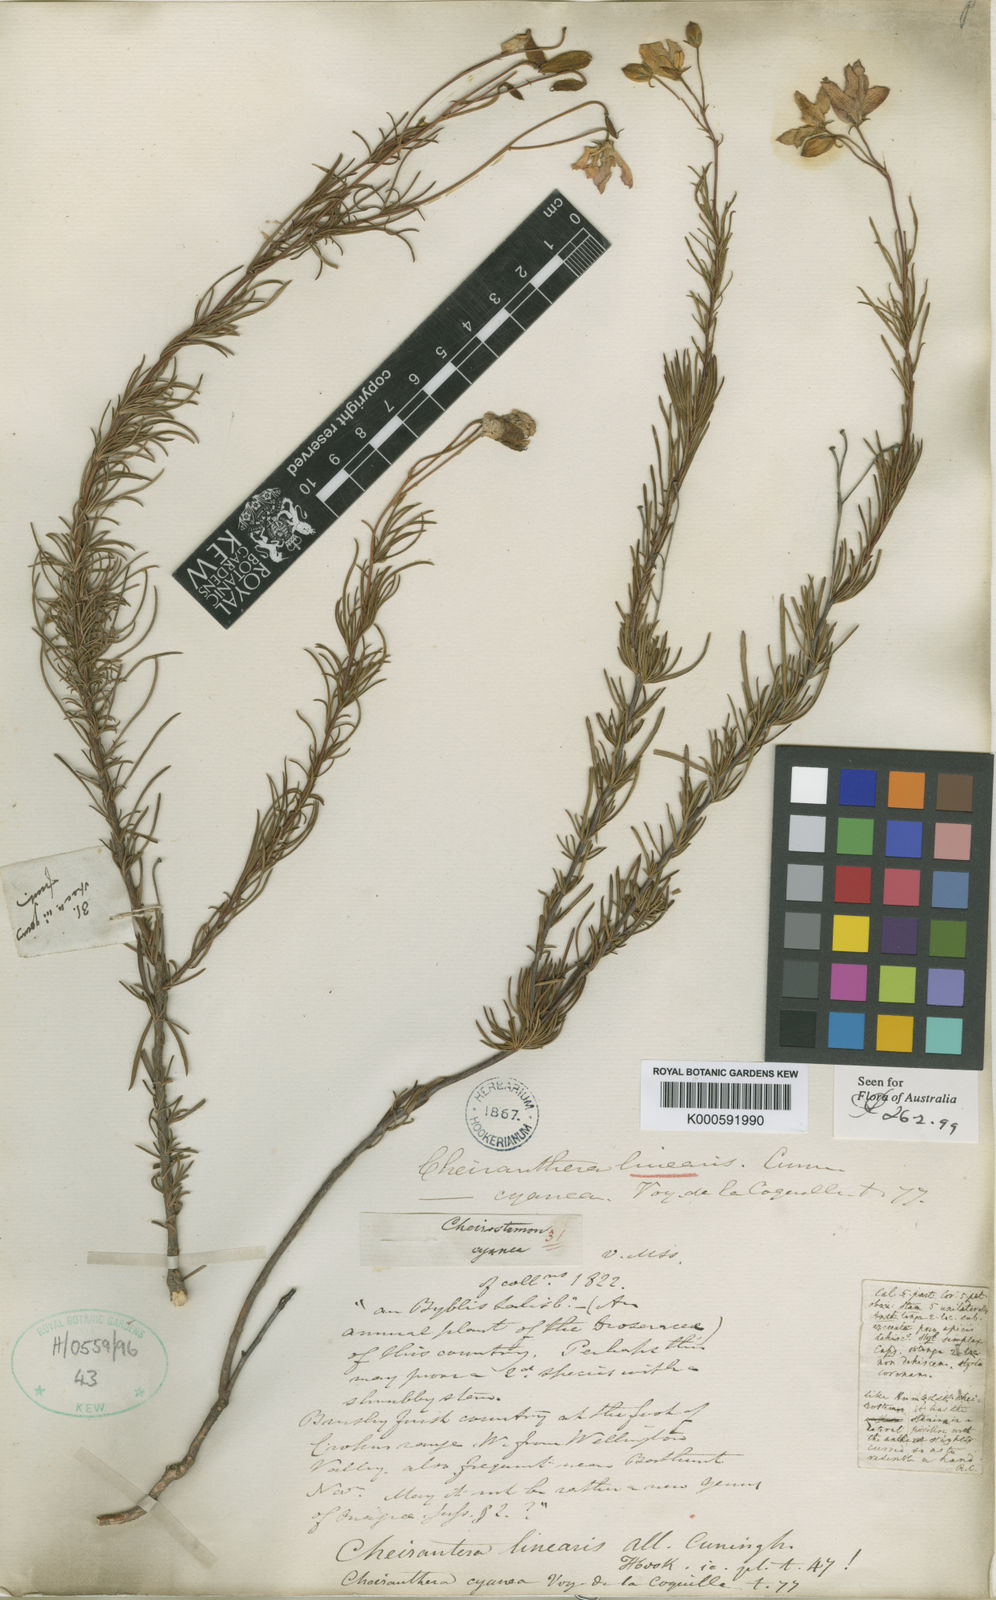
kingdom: Plantae
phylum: Tracheophyta
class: Magnoliopsida
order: Apiales
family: Pittosporaceae
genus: Cheiranthera
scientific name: Cheiranthera
